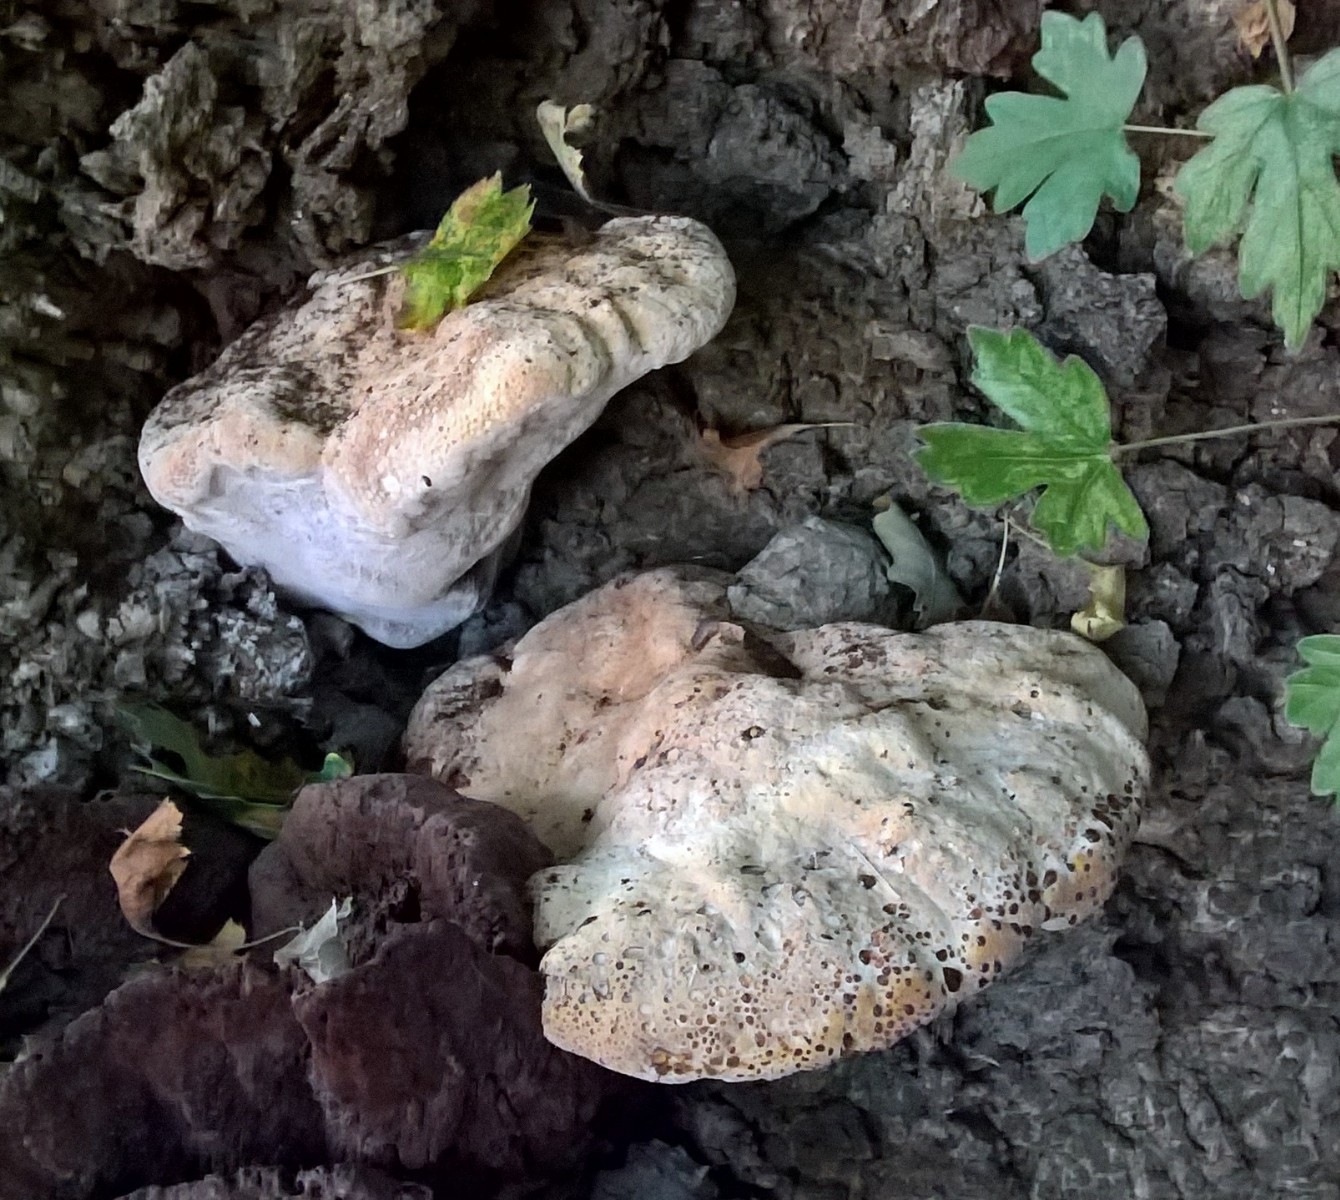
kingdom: Fungi
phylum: Basidiomycota
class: Agaricomycetes
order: Hymenochaetales
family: Hymenochaetaceae
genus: Pseudoinonotus
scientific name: Pseudoinonotus dryadeus
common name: ege-spejlporesvamp
